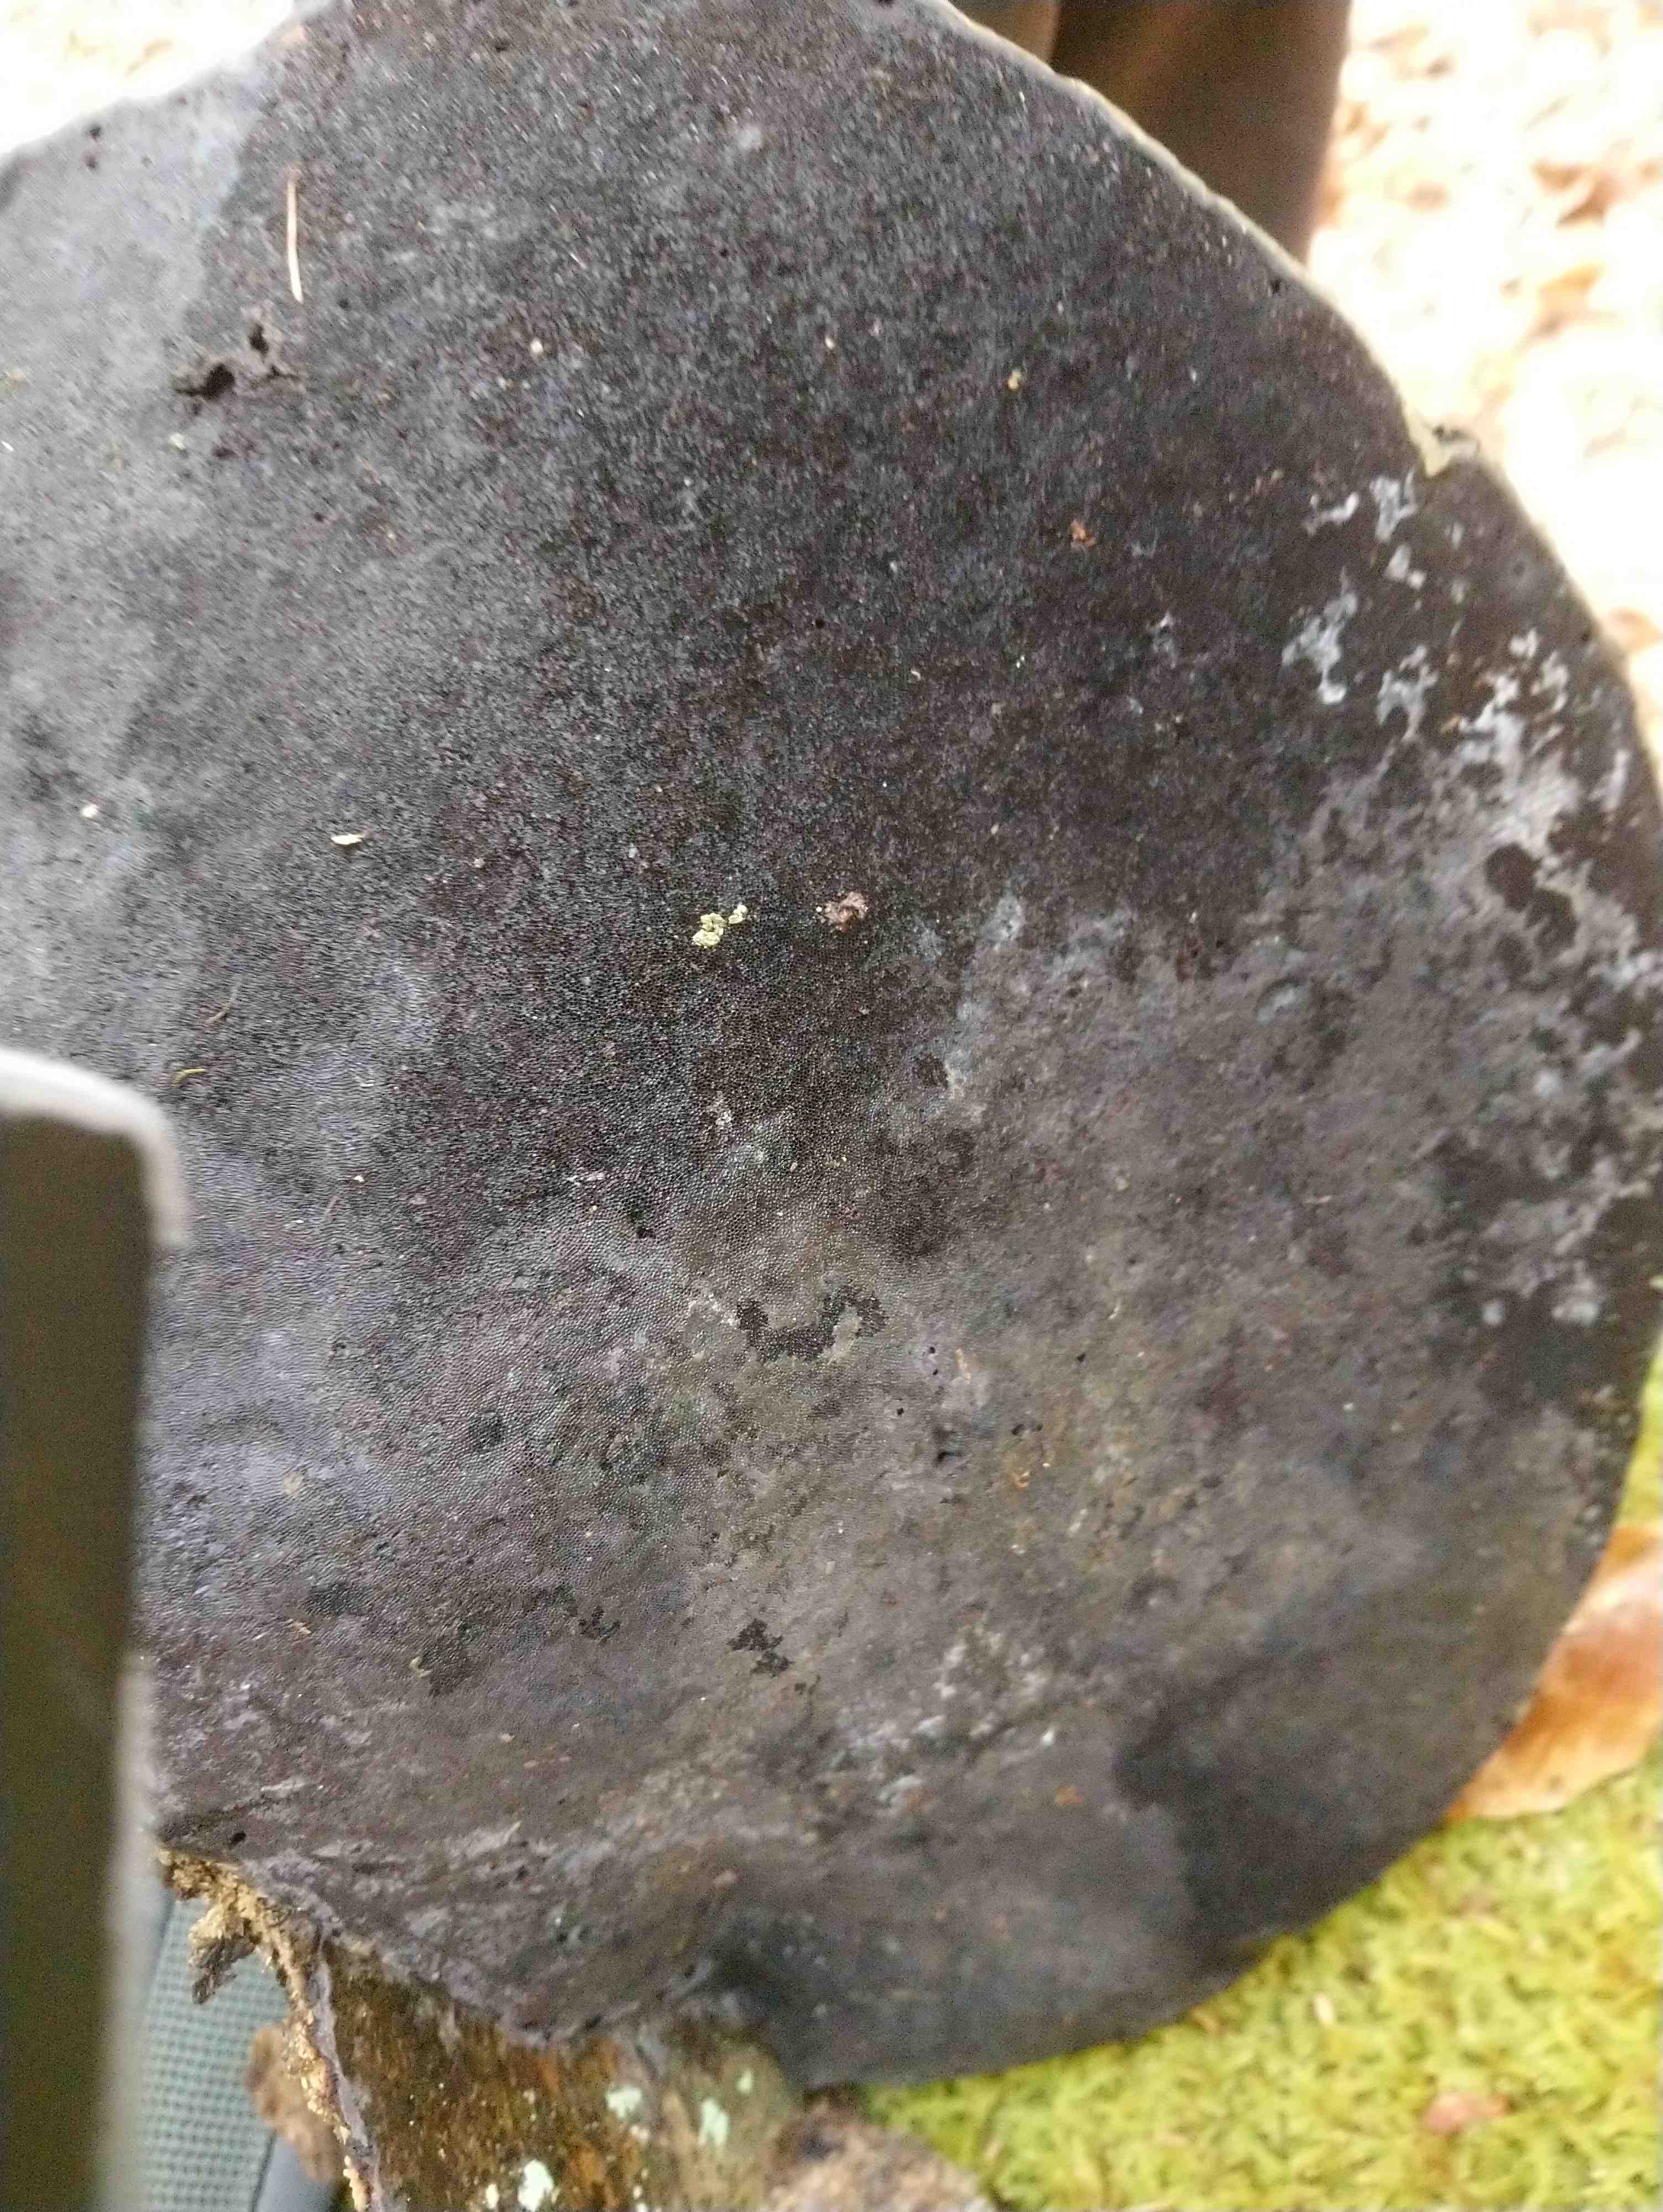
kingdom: Fungi
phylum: Basidiomycota
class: Agaricomycetes
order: Polyporales
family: Polyporaceae
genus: Fomes
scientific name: Fomes fomentarius
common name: tøndersvamp
